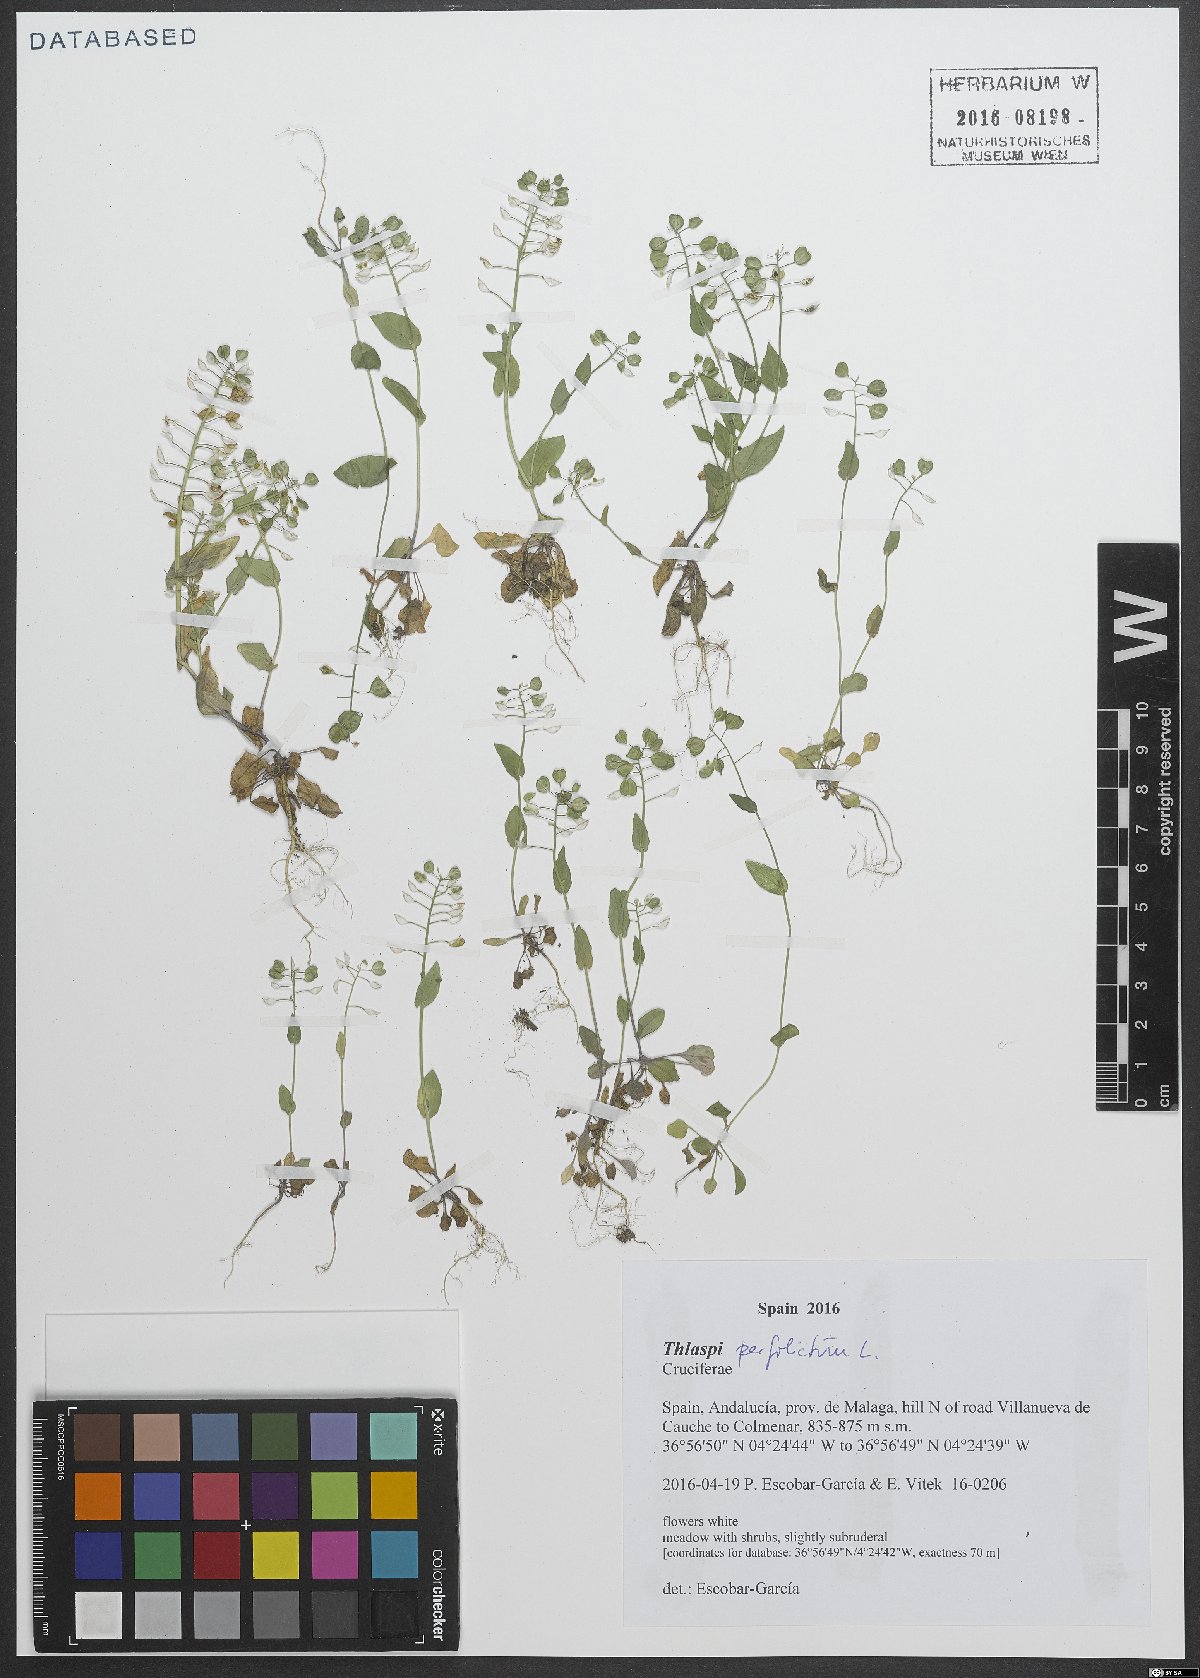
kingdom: Plantae
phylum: Tracheophyta
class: Magnoliopsida
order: Brassicales
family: Brassicaceae
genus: Noccaea
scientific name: Noccaea perfoliata
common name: Perfoliate pennycress
